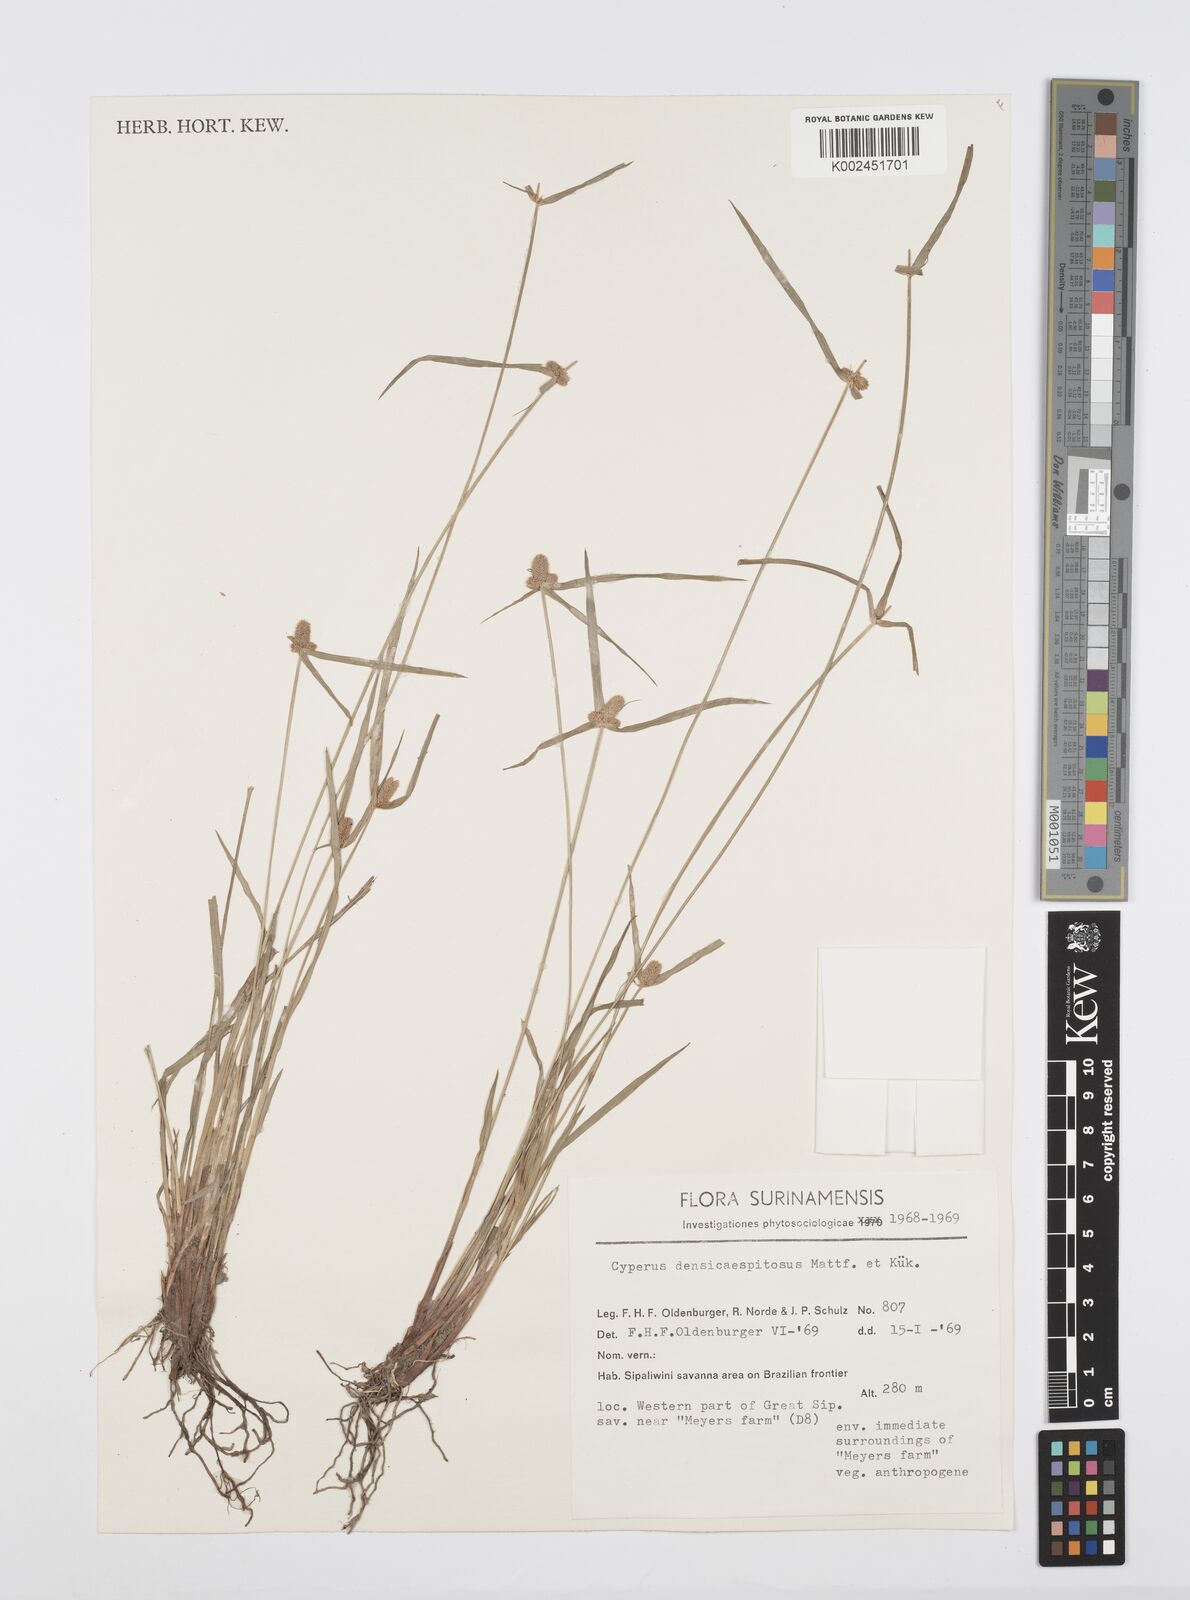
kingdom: Plantae
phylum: Tracheophyta
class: Liliopsida
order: Poales
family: Cyperaceae
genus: Cyperus
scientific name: Cyperus
